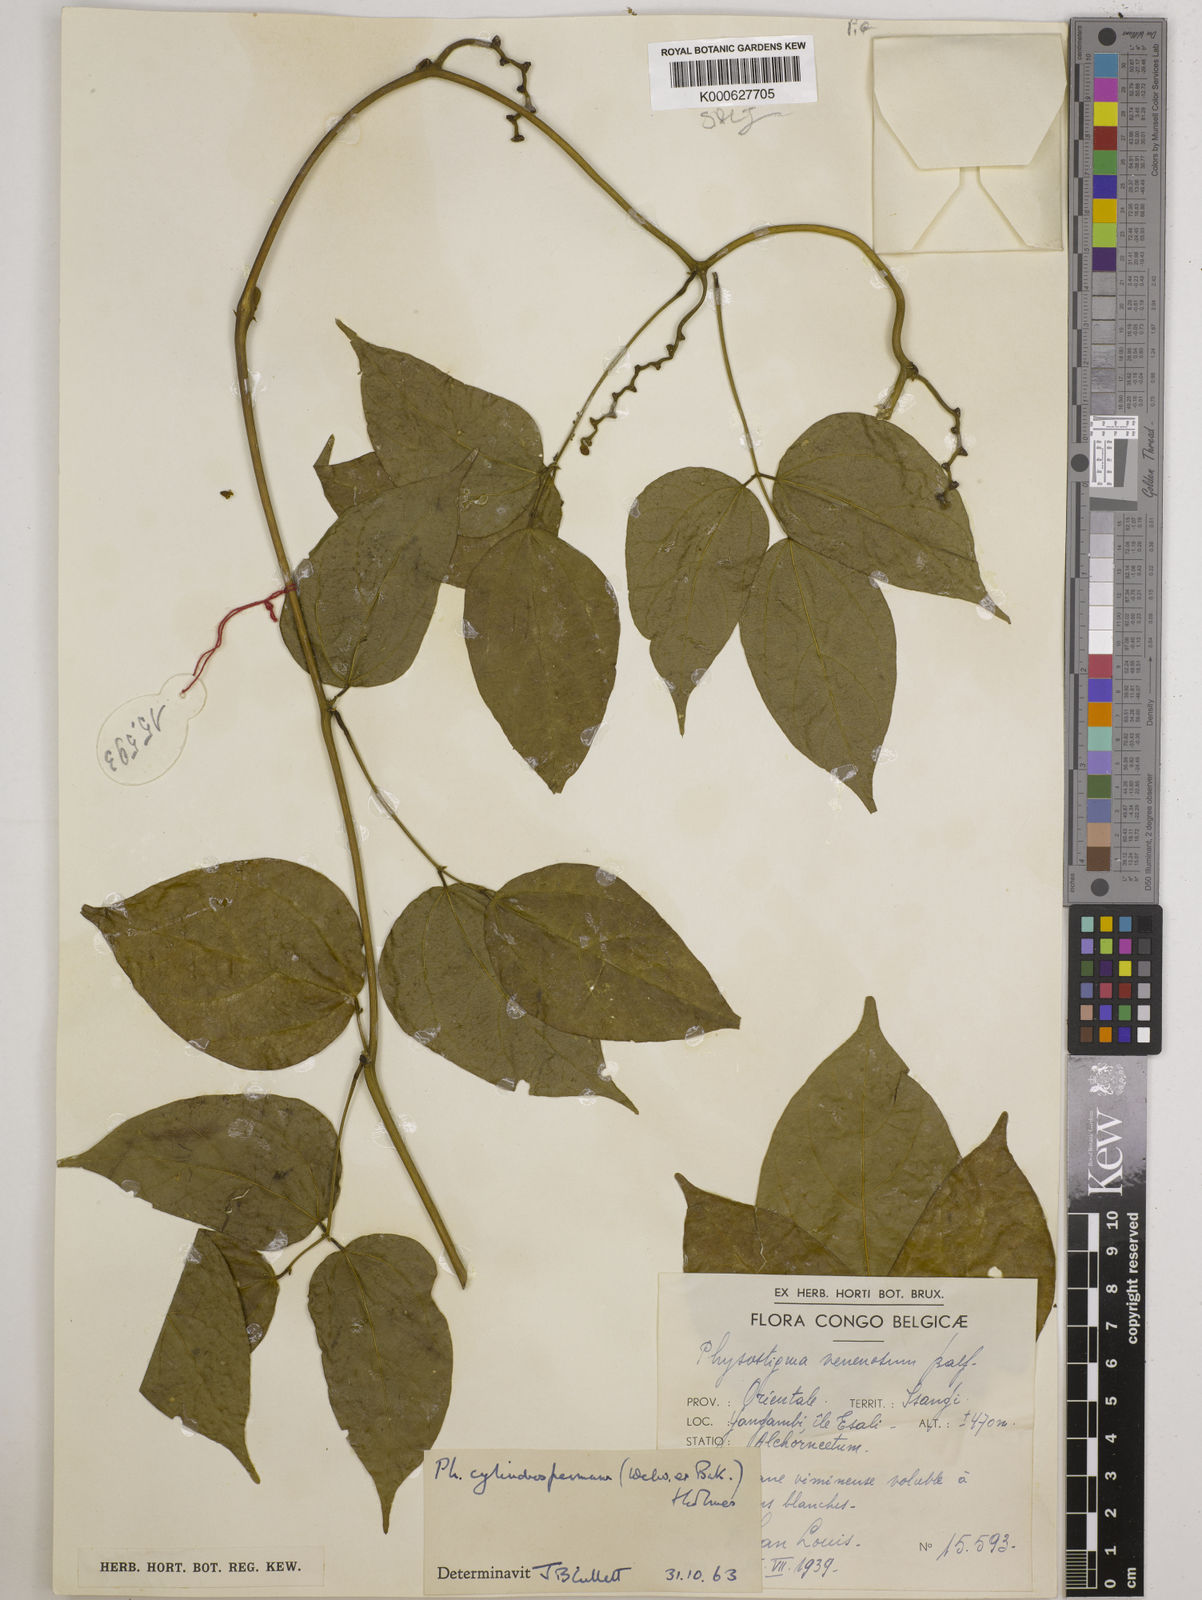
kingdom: Plantae
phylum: Tracheophyta
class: Magnoliopsida
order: Fabales
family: Fabaceae
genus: Physostigma
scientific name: Physostigma cylindrospermum
